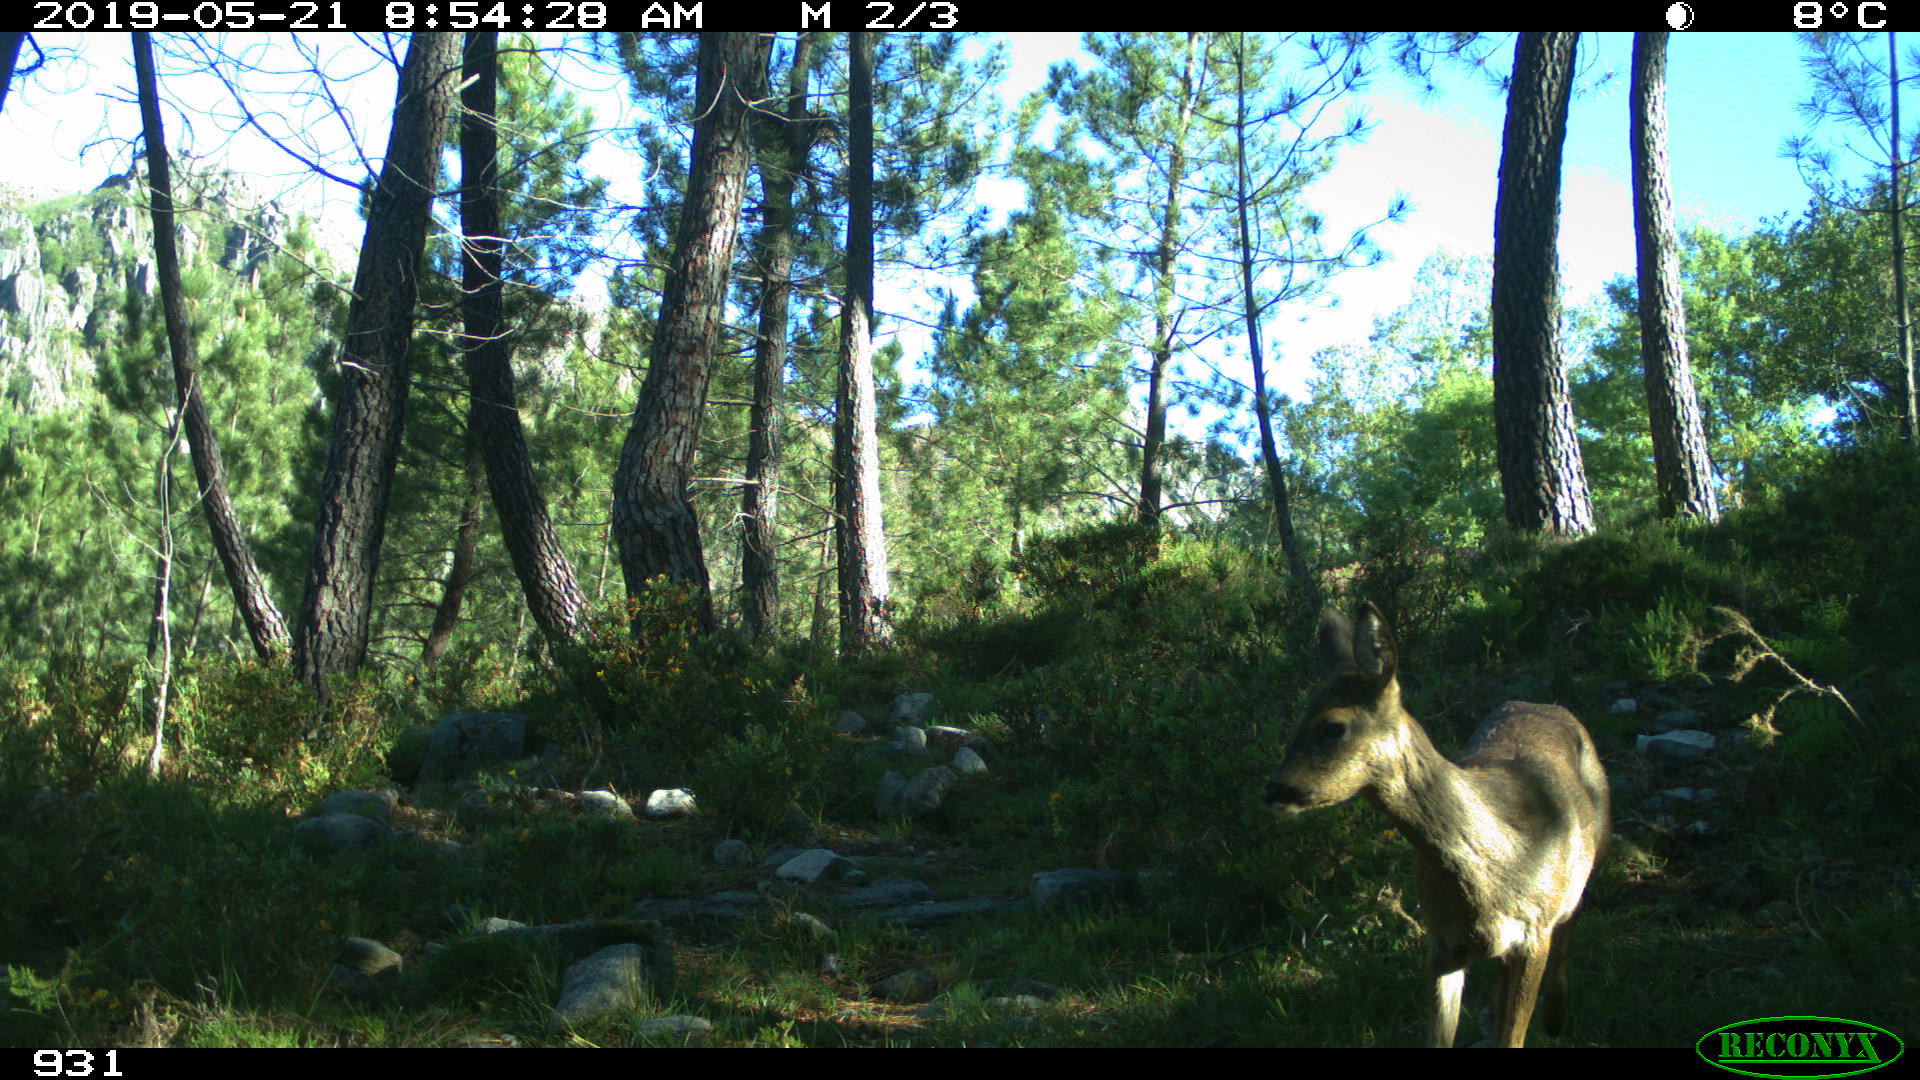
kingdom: Animalia
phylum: Chordata
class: Mammalia
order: Artiodactyla
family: Cervidae
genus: Capreolus
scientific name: Capreolus capreolus
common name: Western roe deer
